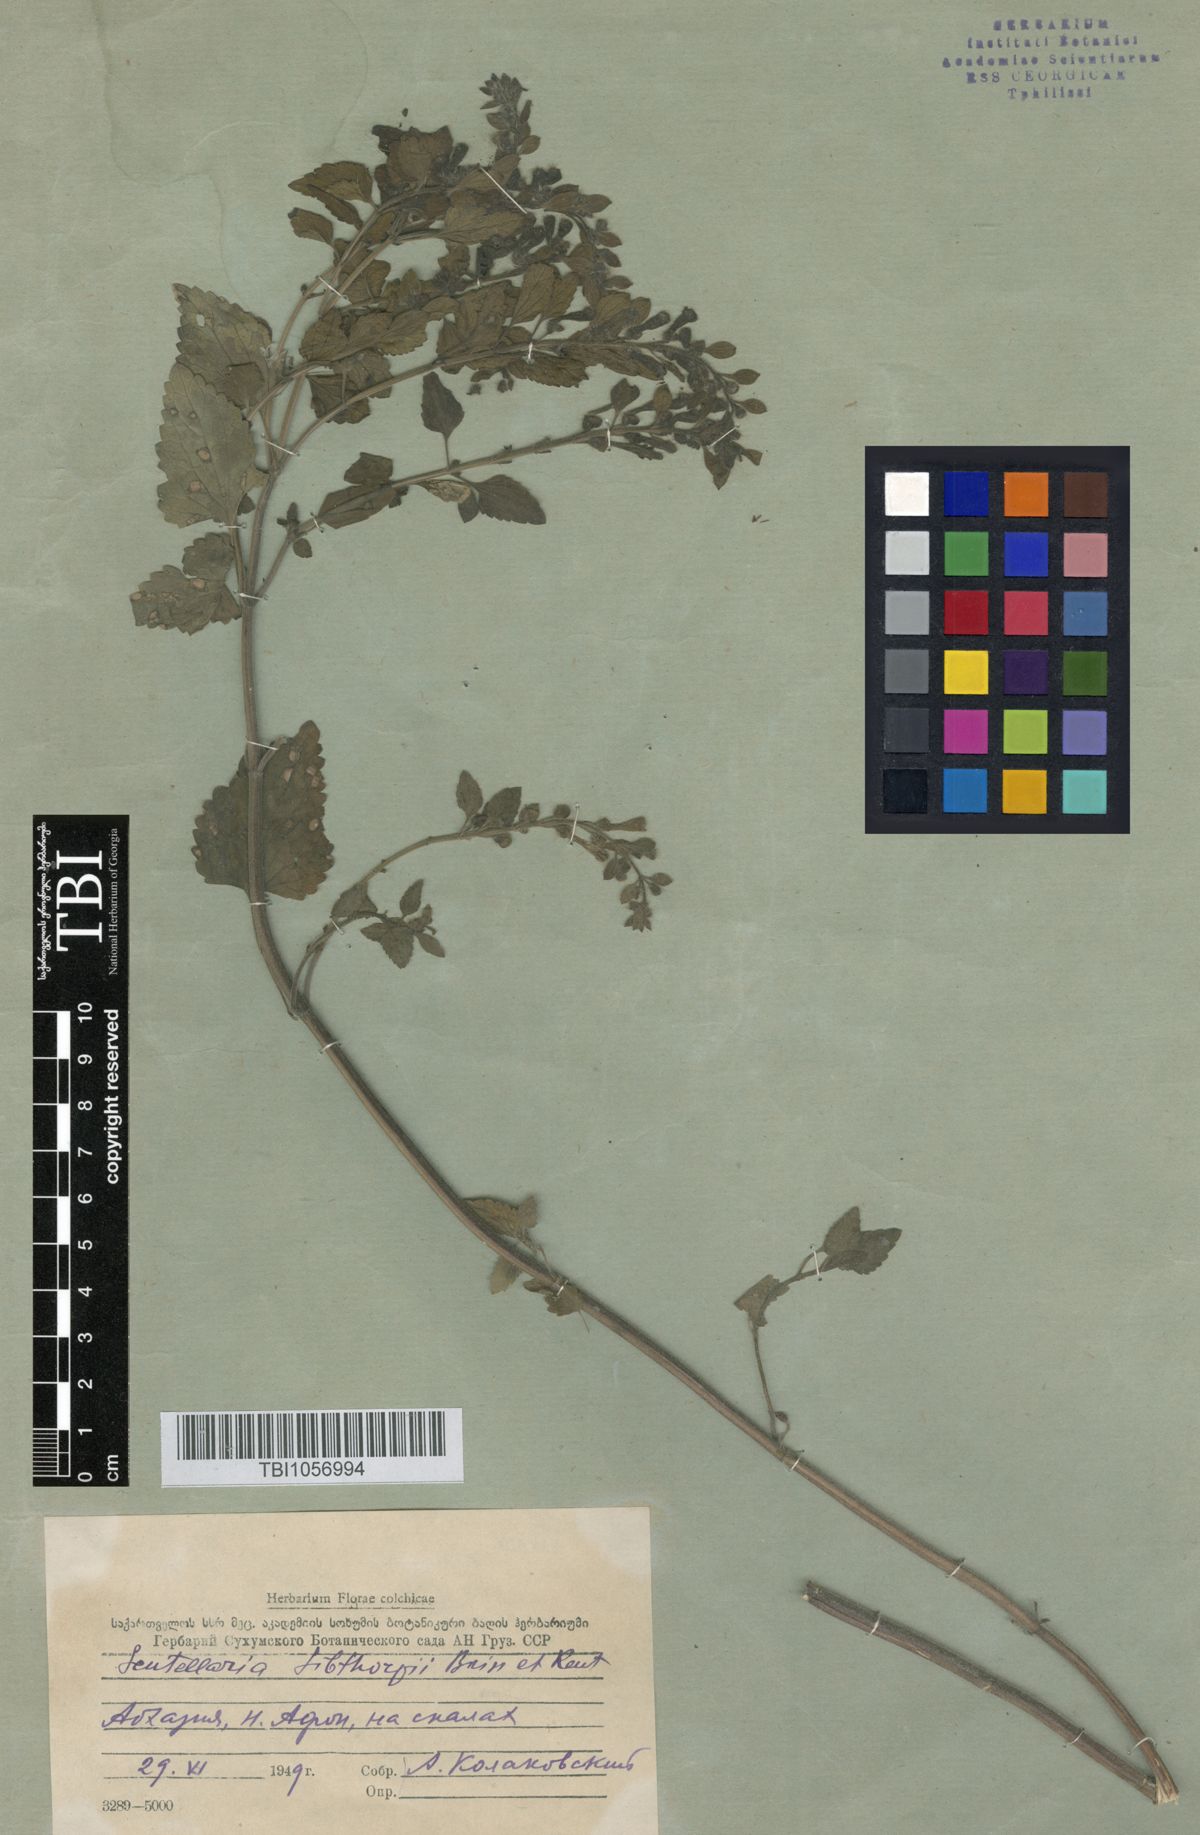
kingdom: Plantae
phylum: Tracheophyta
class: Magnoliopsida
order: Lamiales
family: Lamiaceae
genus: Scutellaria
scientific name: Scutellaria albida
